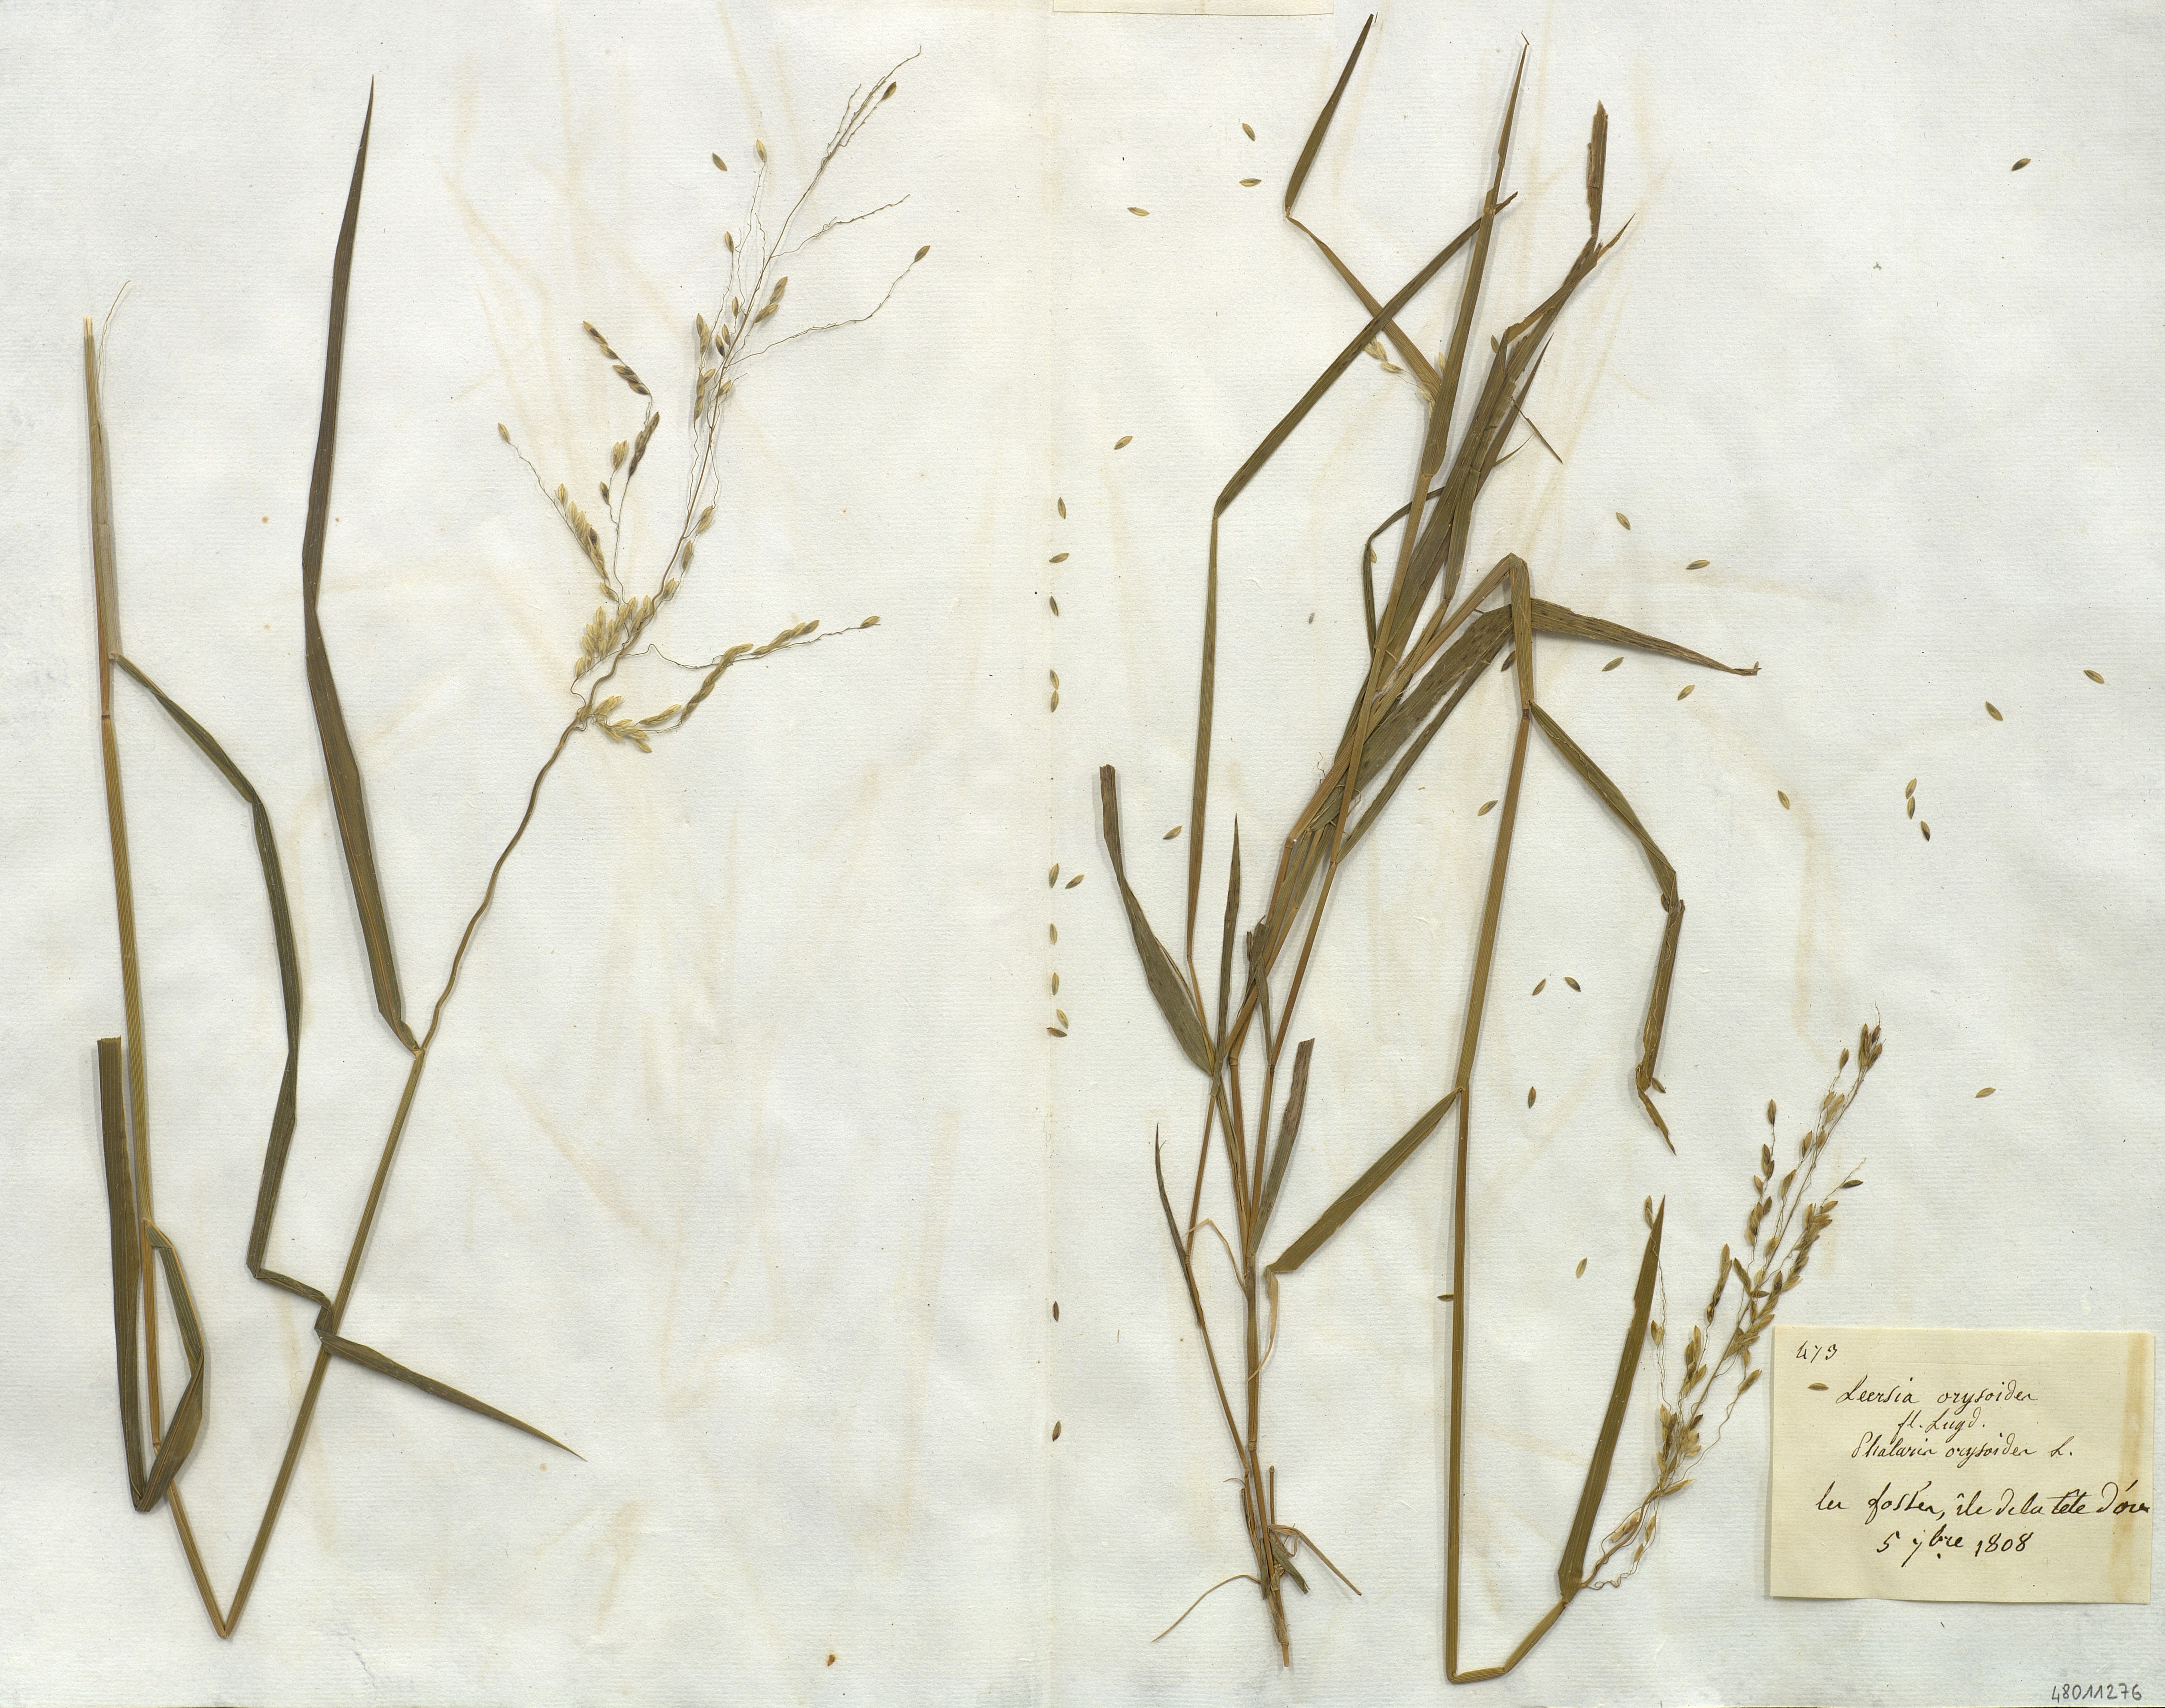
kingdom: Plantae
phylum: Tracheophyta
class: Liliopsida
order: Poales
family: Poaceae
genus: Leersia
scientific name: Leersia oryzoides
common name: Cut-grass
